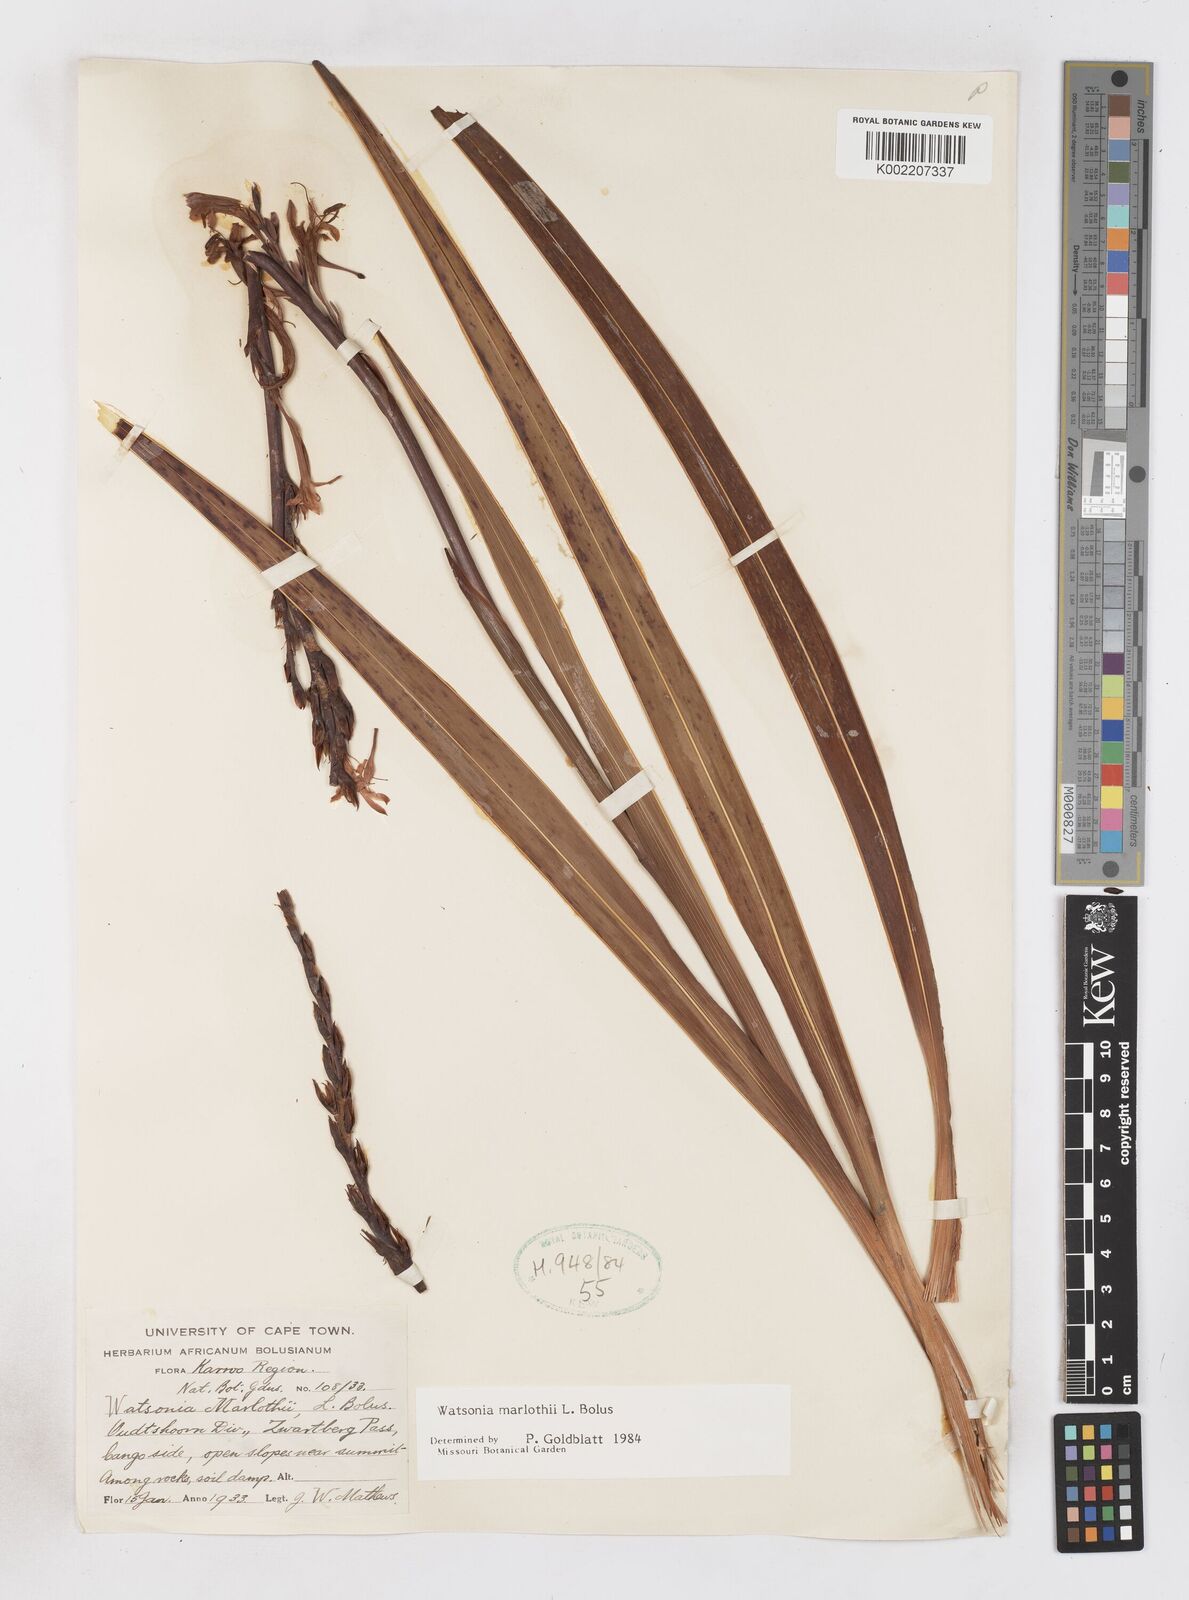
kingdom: Plantae
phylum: Tracheophyta
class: Liliopsida
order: Asparagales
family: Iridaceae
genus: Watsonia
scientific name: Watsonia marlothii
